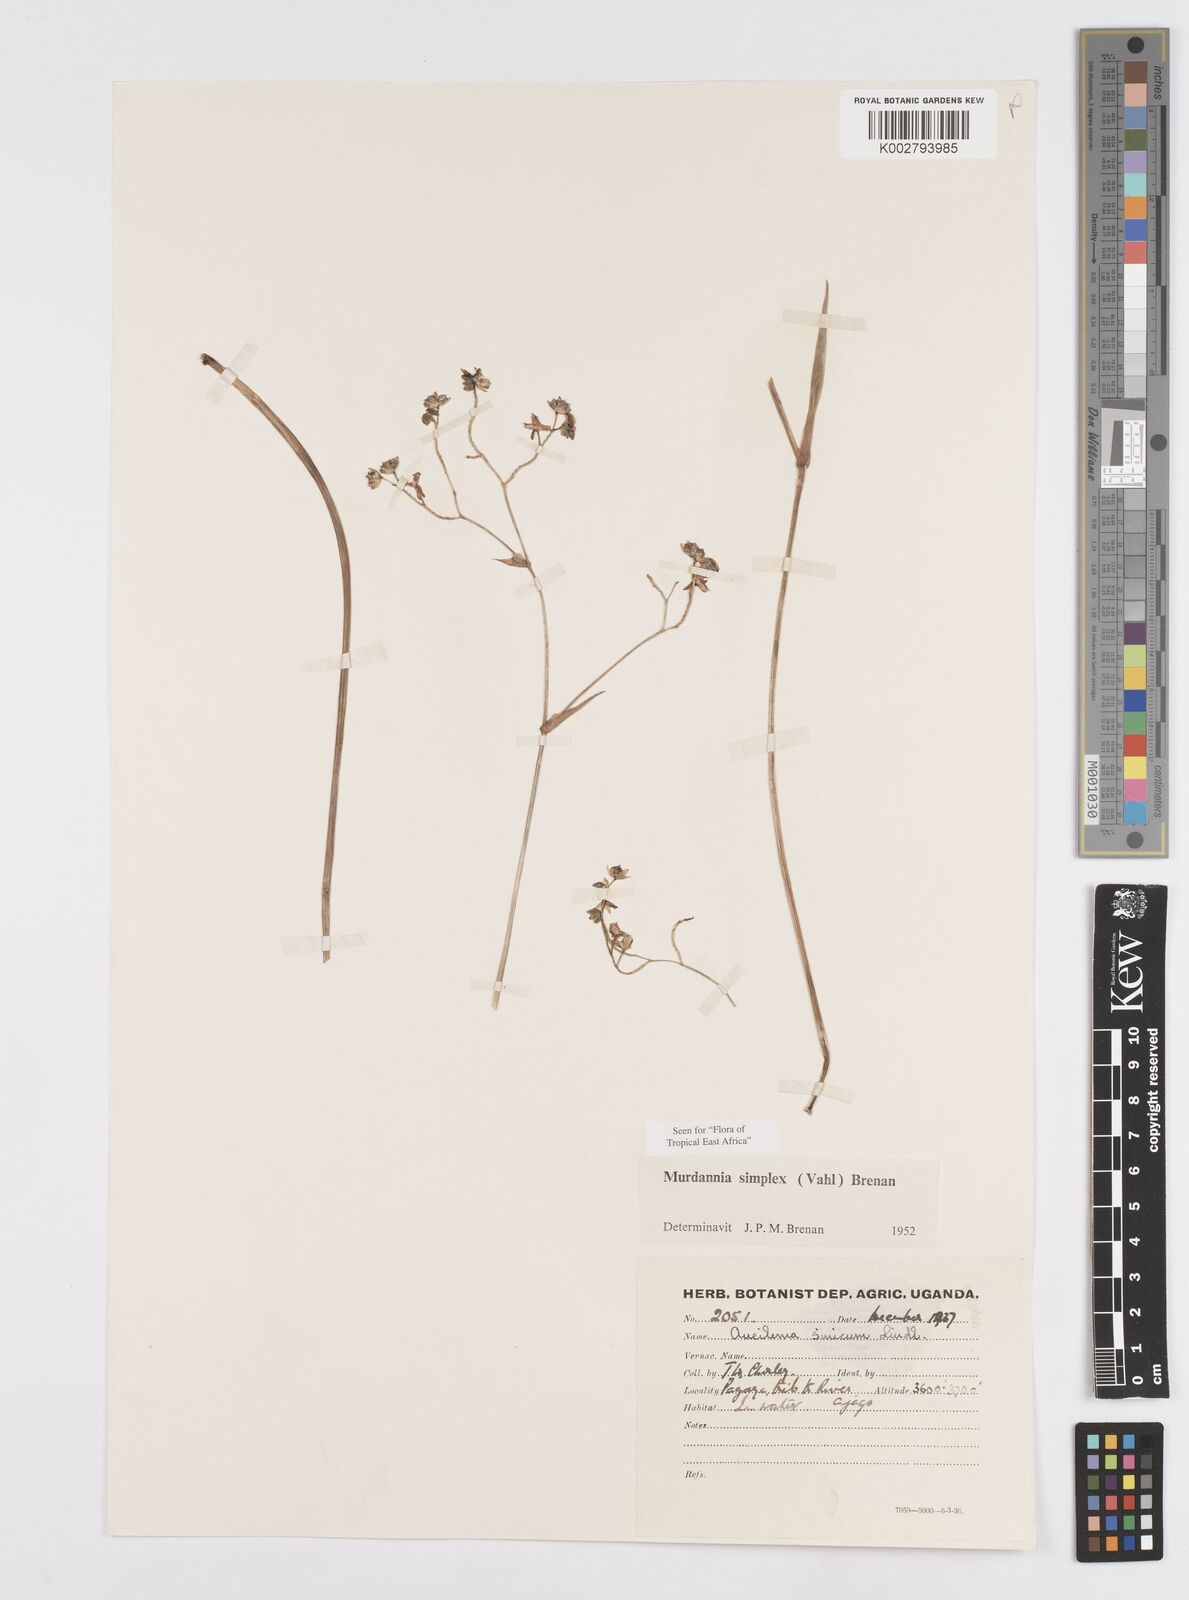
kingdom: Plantae
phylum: Tracheophyta
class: Liliopsida
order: Commelinales
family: Commelinaceae
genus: Murdannia
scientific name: Murdannia simplex
